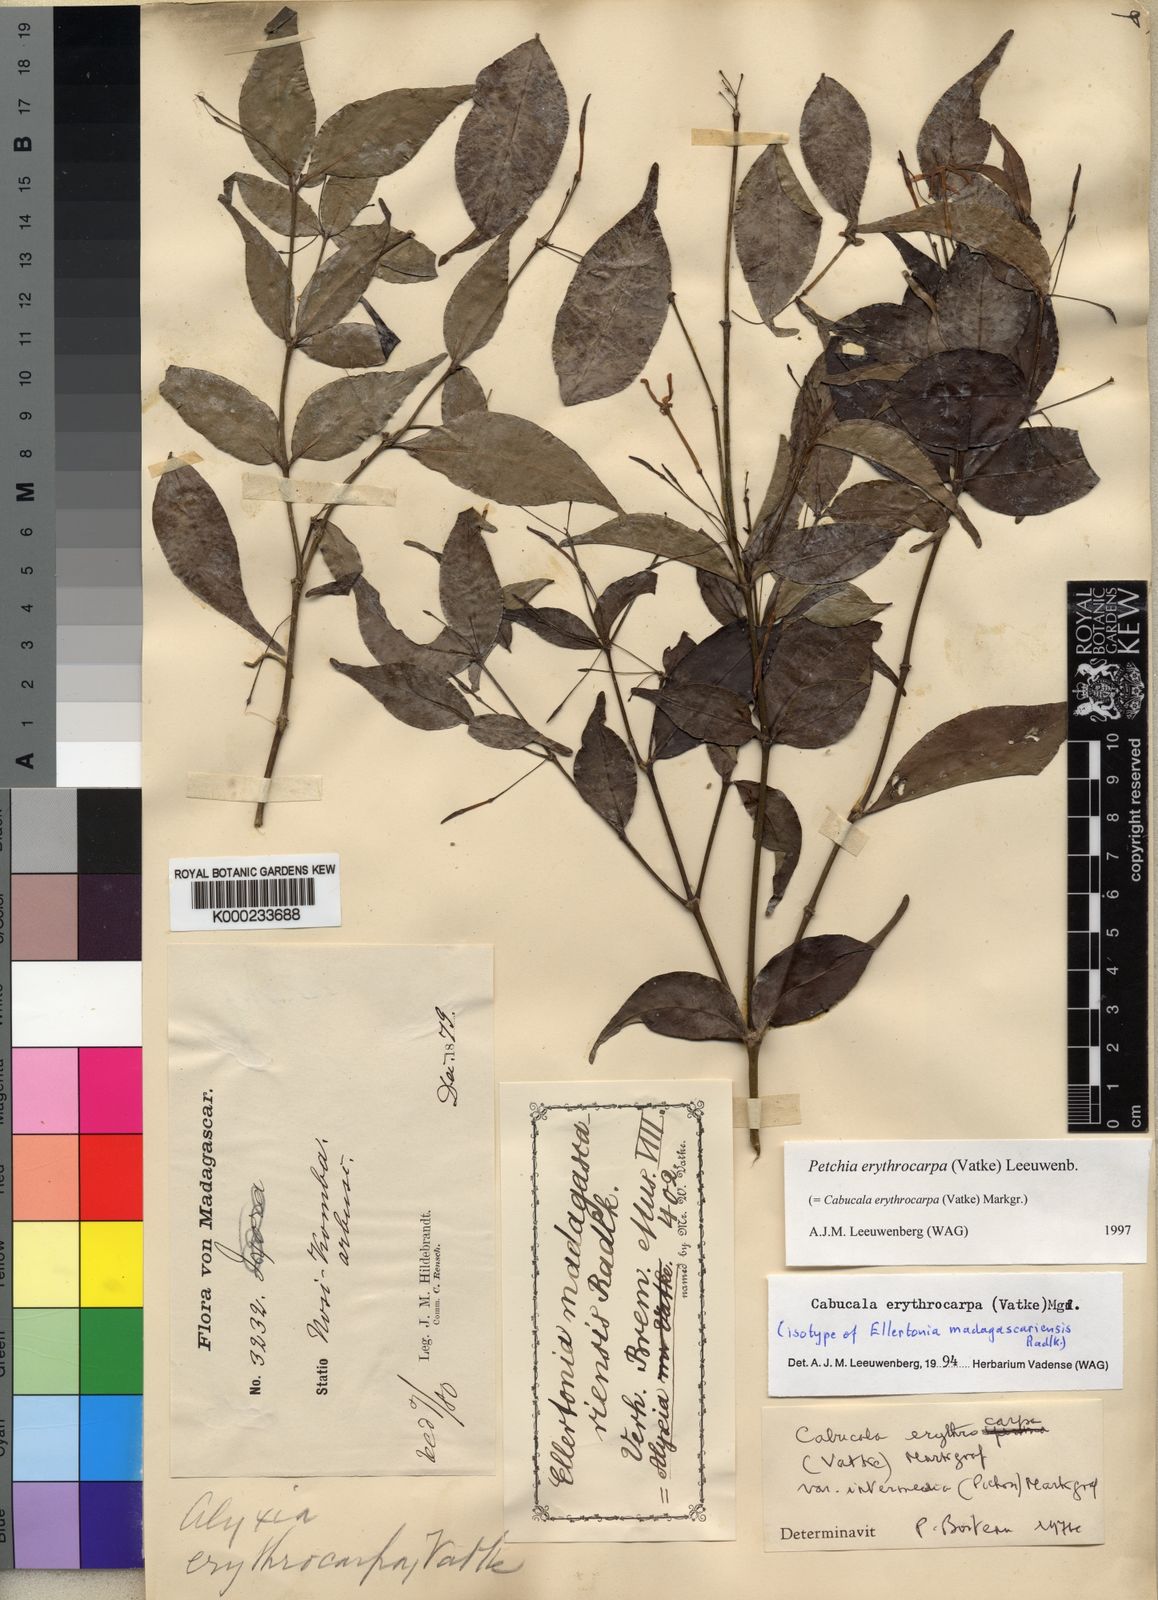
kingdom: Plantae
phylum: Tracheophyta
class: Magnoliopsida
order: Gentianales
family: Apocynaceae
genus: Petchia
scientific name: Petchia erythrocarpa
